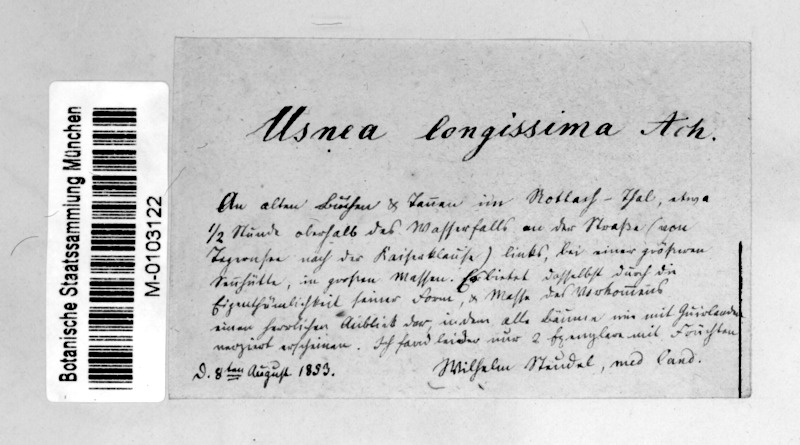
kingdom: Fungi
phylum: Ascomycota
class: Lecanoromycetes
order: Lecanorales
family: Parmeliaceae
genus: Dolichousnea
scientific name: Dolichousnea longissima
